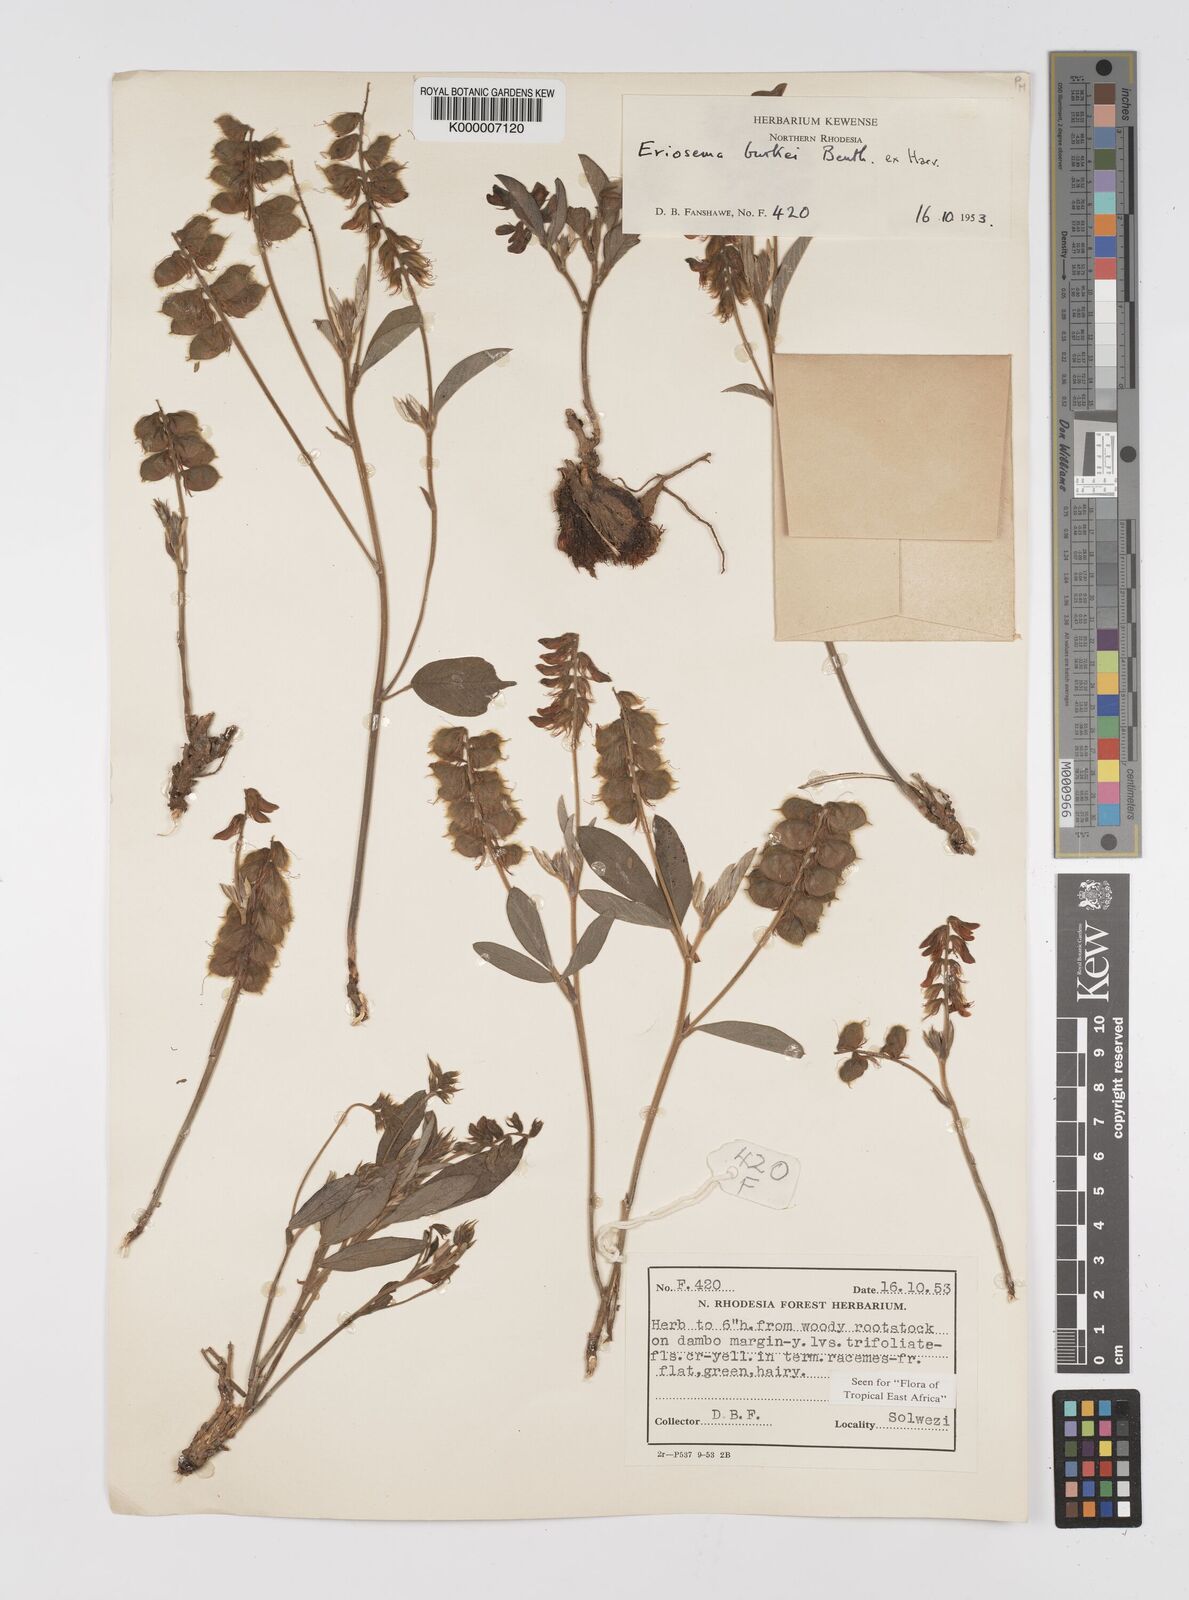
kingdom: Plantae
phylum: Tracheophyta
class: Magnoliopsida
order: Fabales
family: Fabaceae
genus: Eriosema
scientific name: Eriosema burkei
